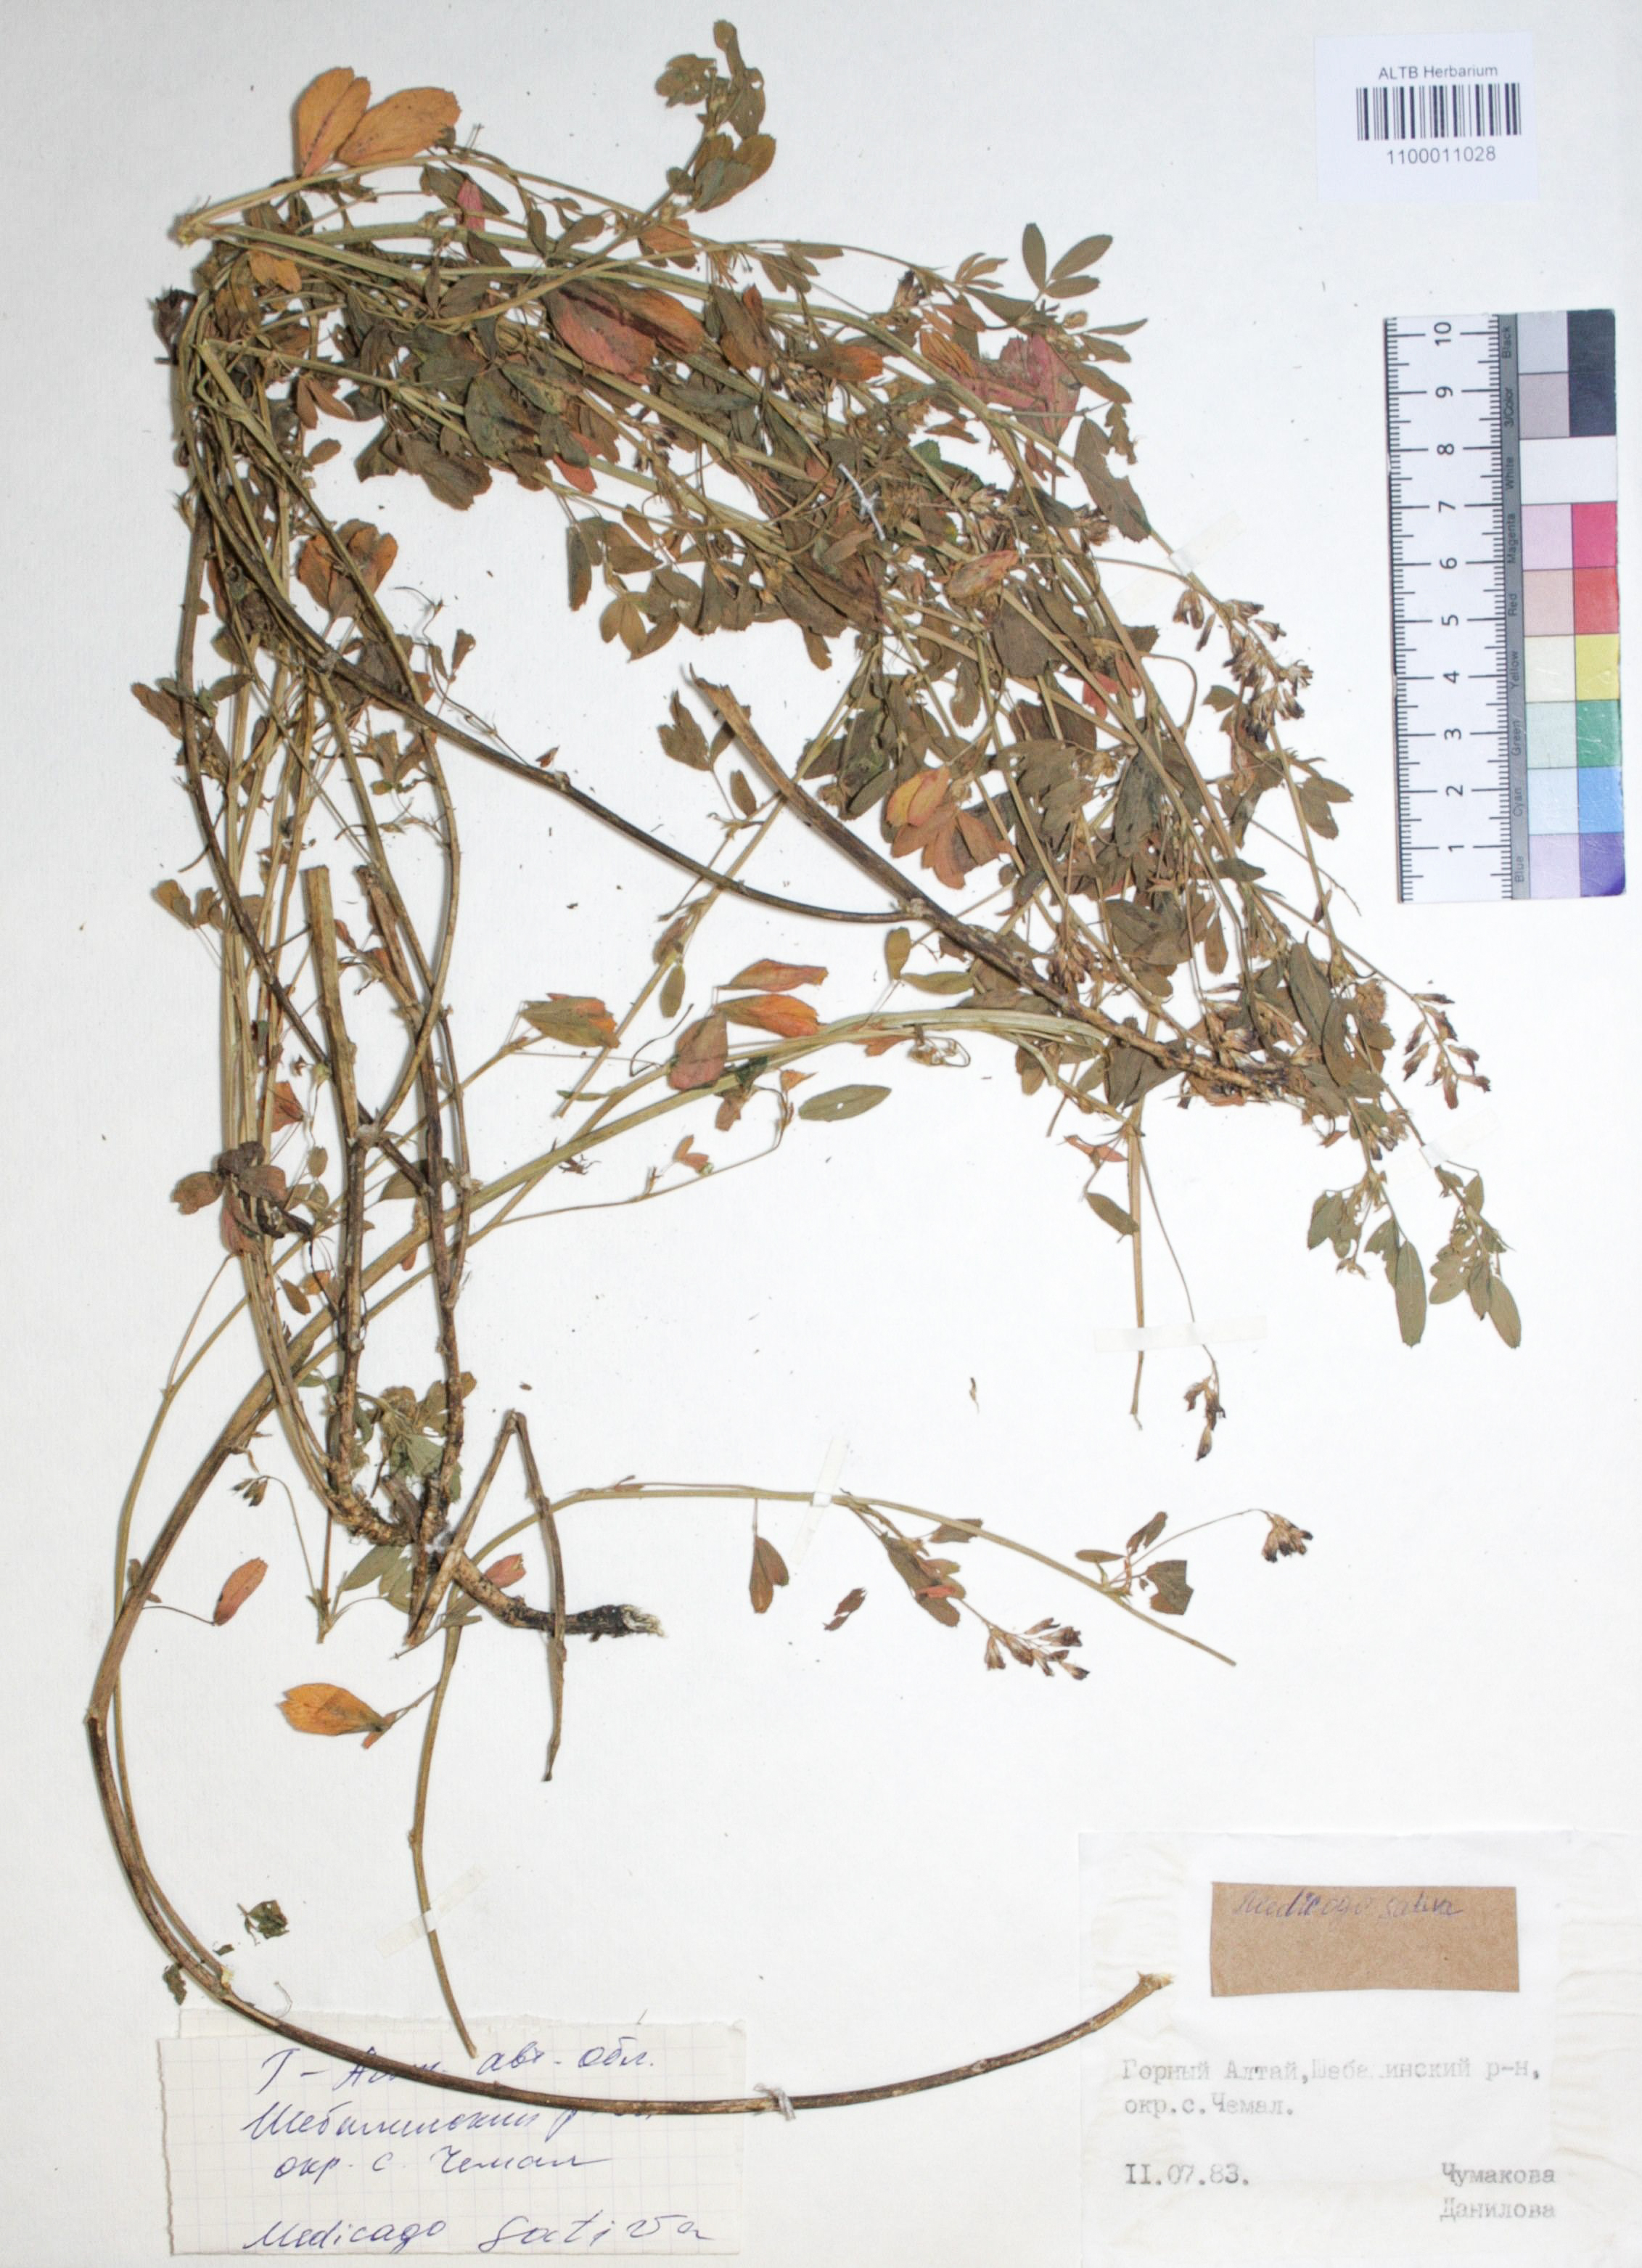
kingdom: Plantae
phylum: Tracheophyta
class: Magnoliopsida
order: Fabales
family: Fabaceae
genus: Medicago
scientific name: Medicago sativa
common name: Alfalfa
